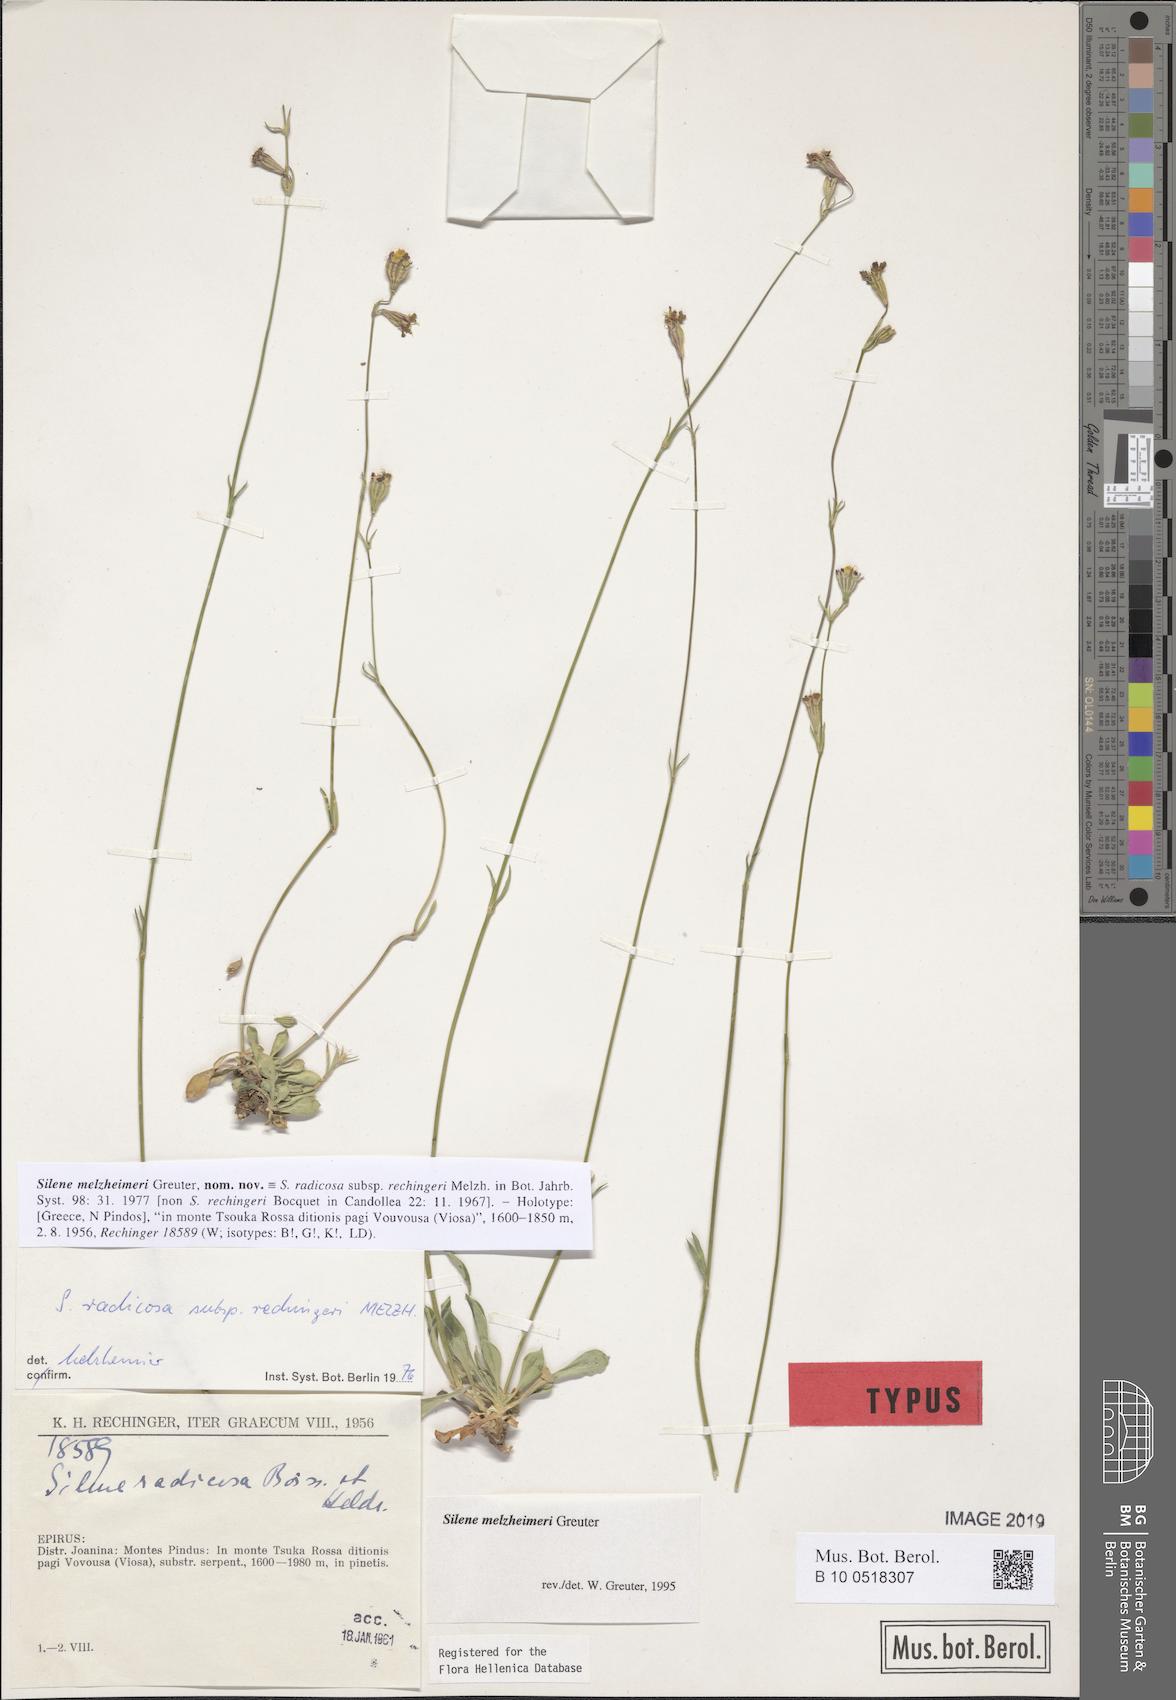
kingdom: Plantae
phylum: Tracheophyta
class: Magnoliopsida
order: Caryophyllales
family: Caryophyllaceae
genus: Silene
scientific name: Silene melzheimeri
